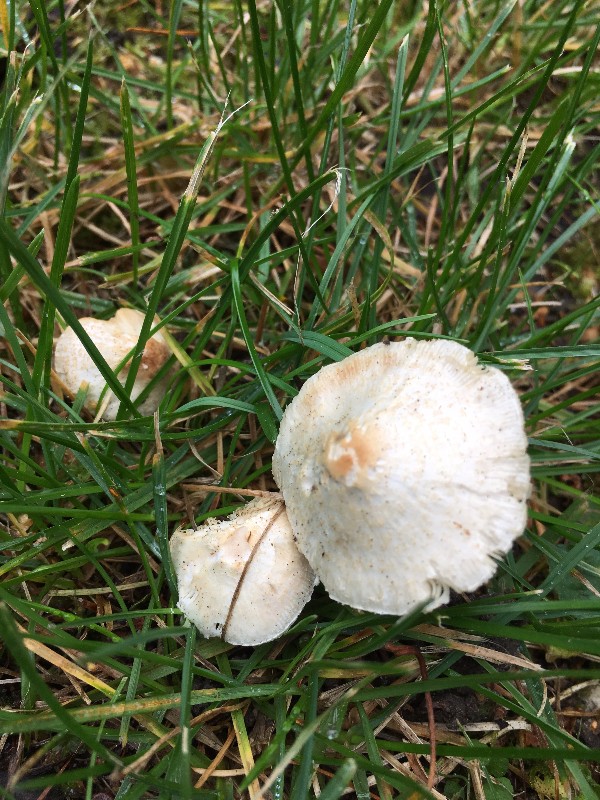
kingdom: Fungi
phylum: Basidiomycota
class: Agaricomycetes
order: Agaricales
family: Agaricaceae
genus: Lepiota
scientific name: Lepiota cristata
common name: stinkende parasolhat
